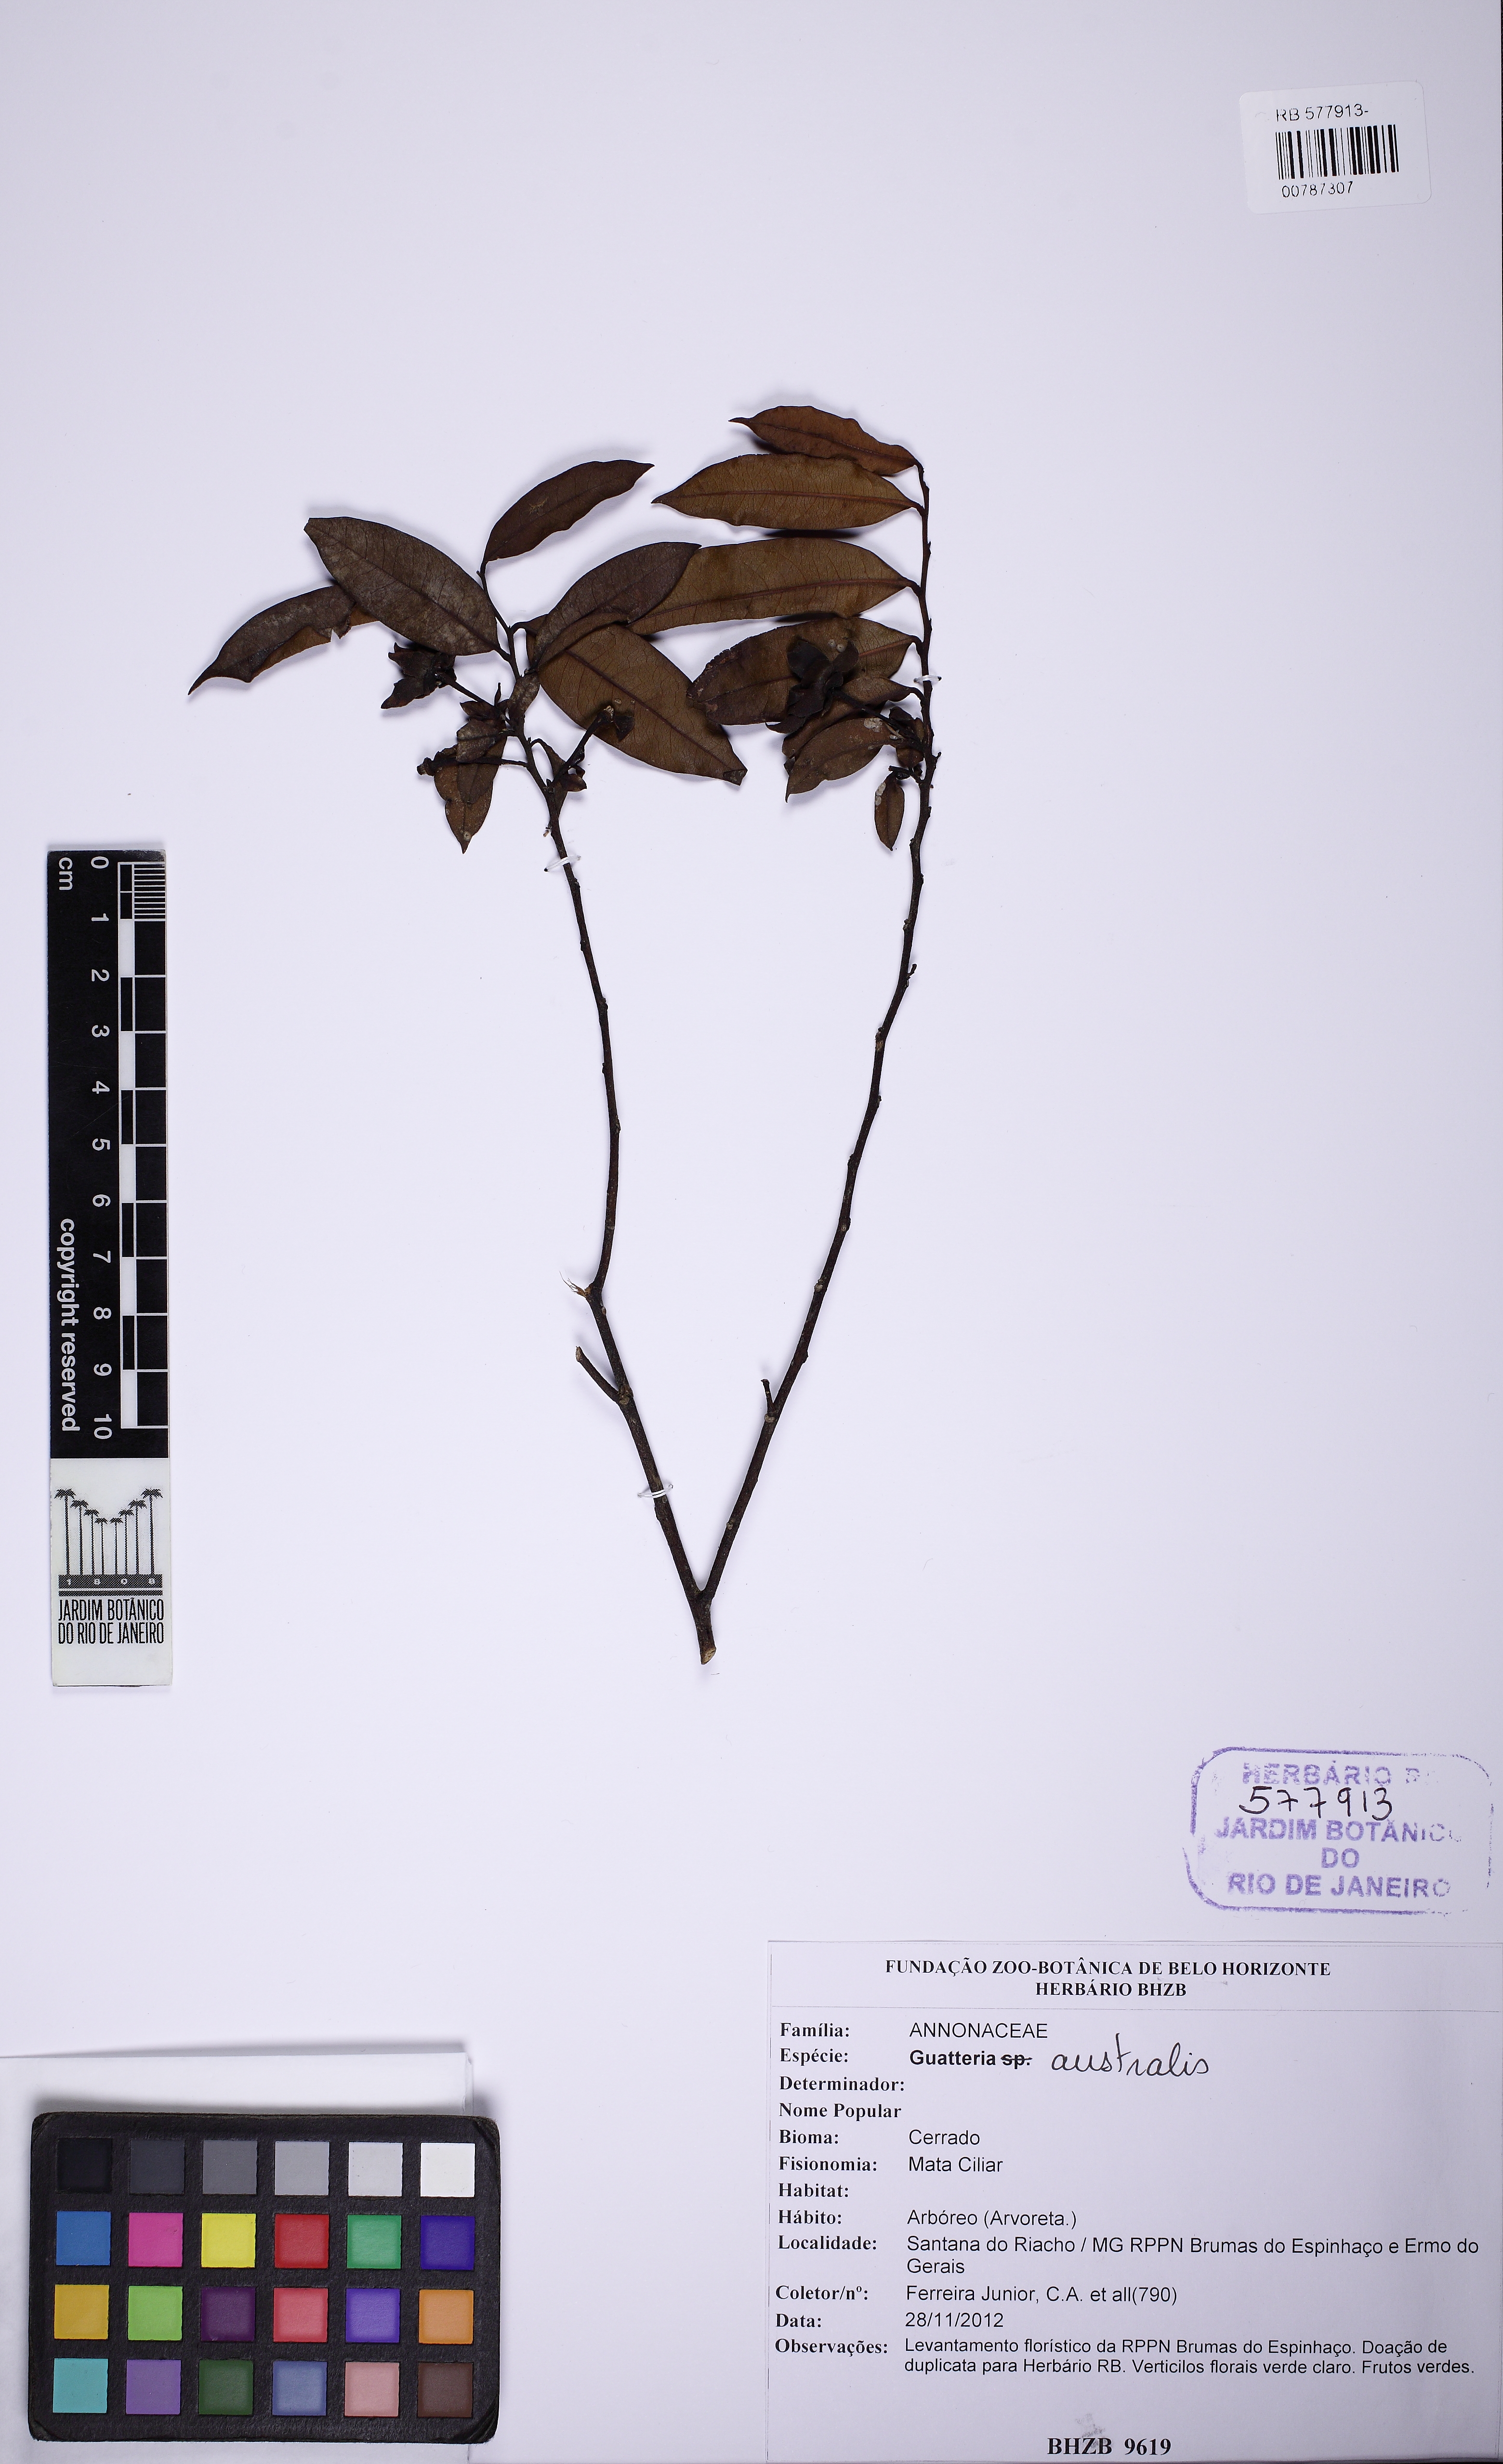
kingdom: Plantae
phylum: Tracheophyta
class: Magnoliopsida
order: Magnoliales
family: Annonaceae
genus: Guatteria
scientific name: Guatteria australis
